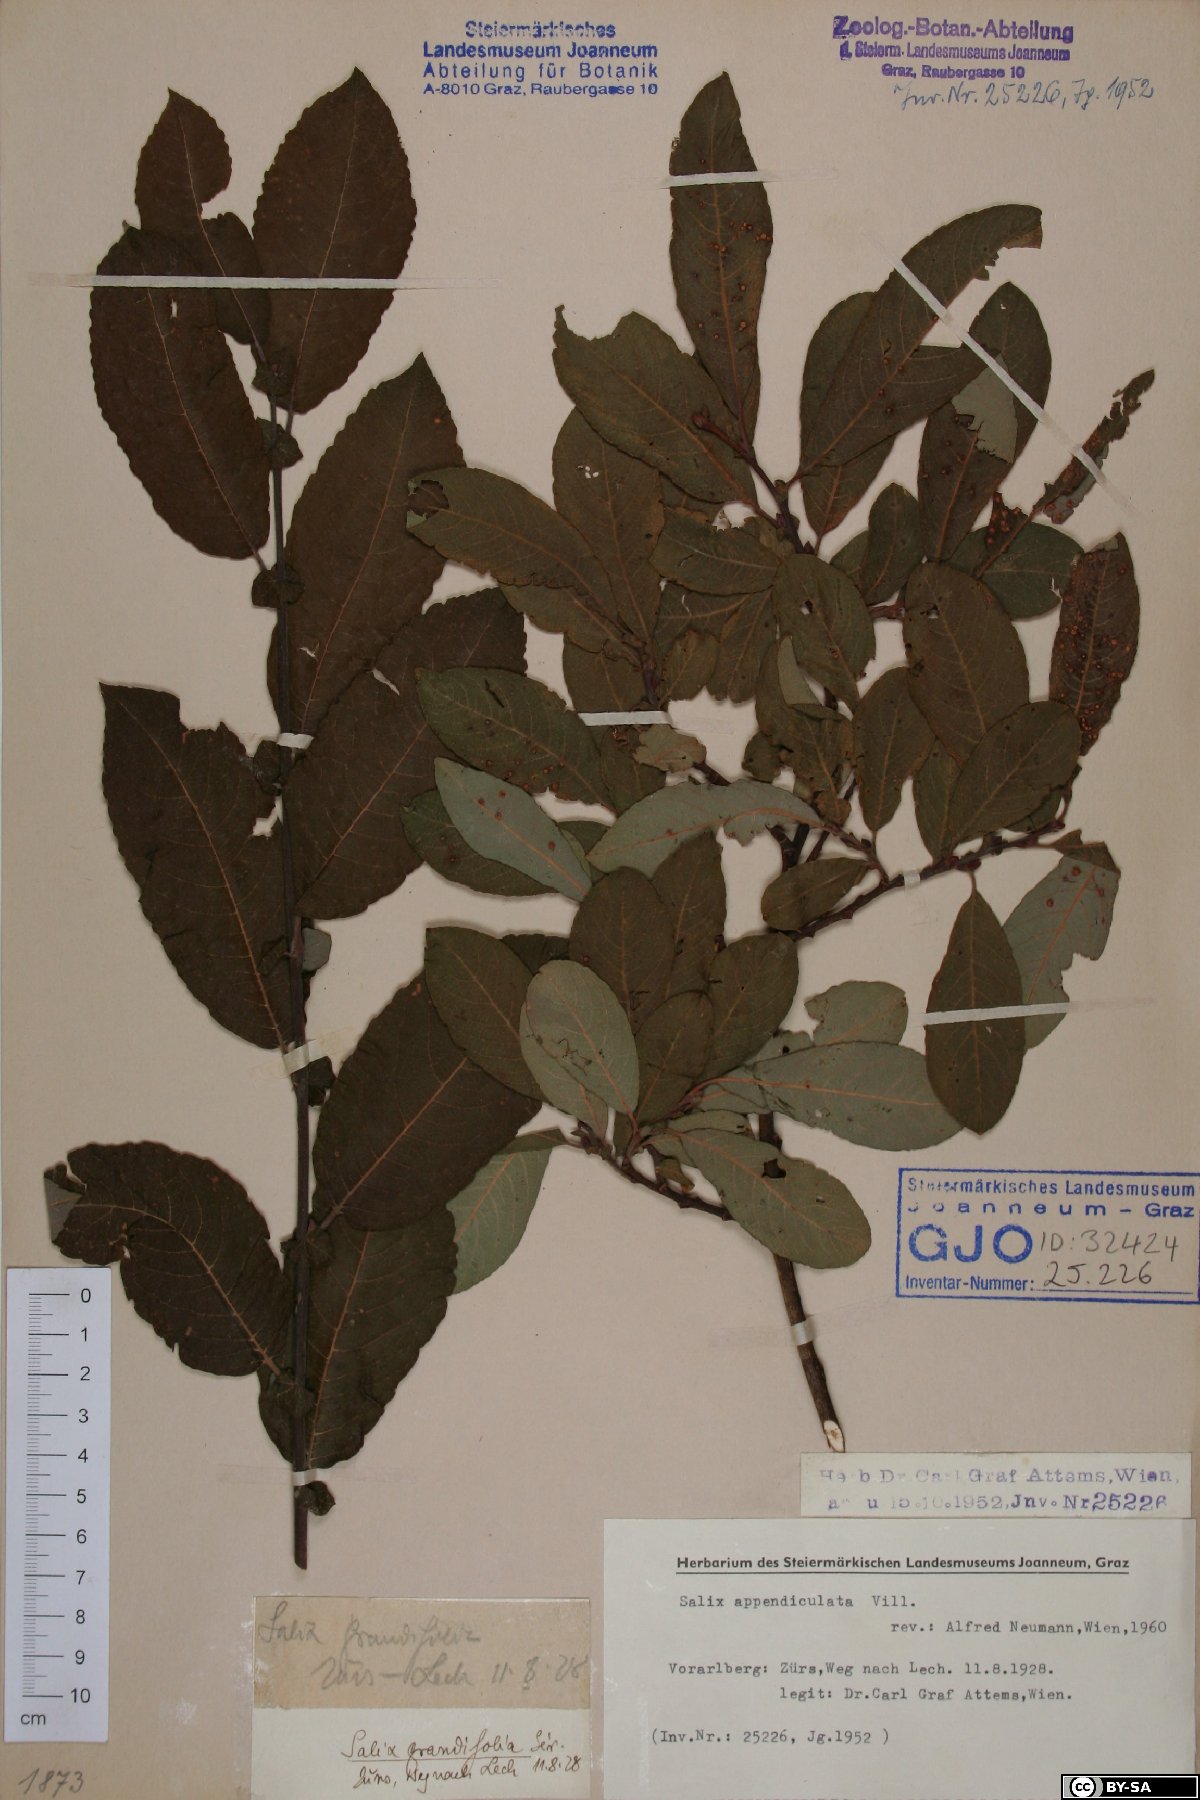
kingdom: Plantae
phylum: Tracheophyta
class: Magnoliopsida
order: Malpighiales
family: Salicaceae
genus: Salix
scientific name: Salix appendiculata
